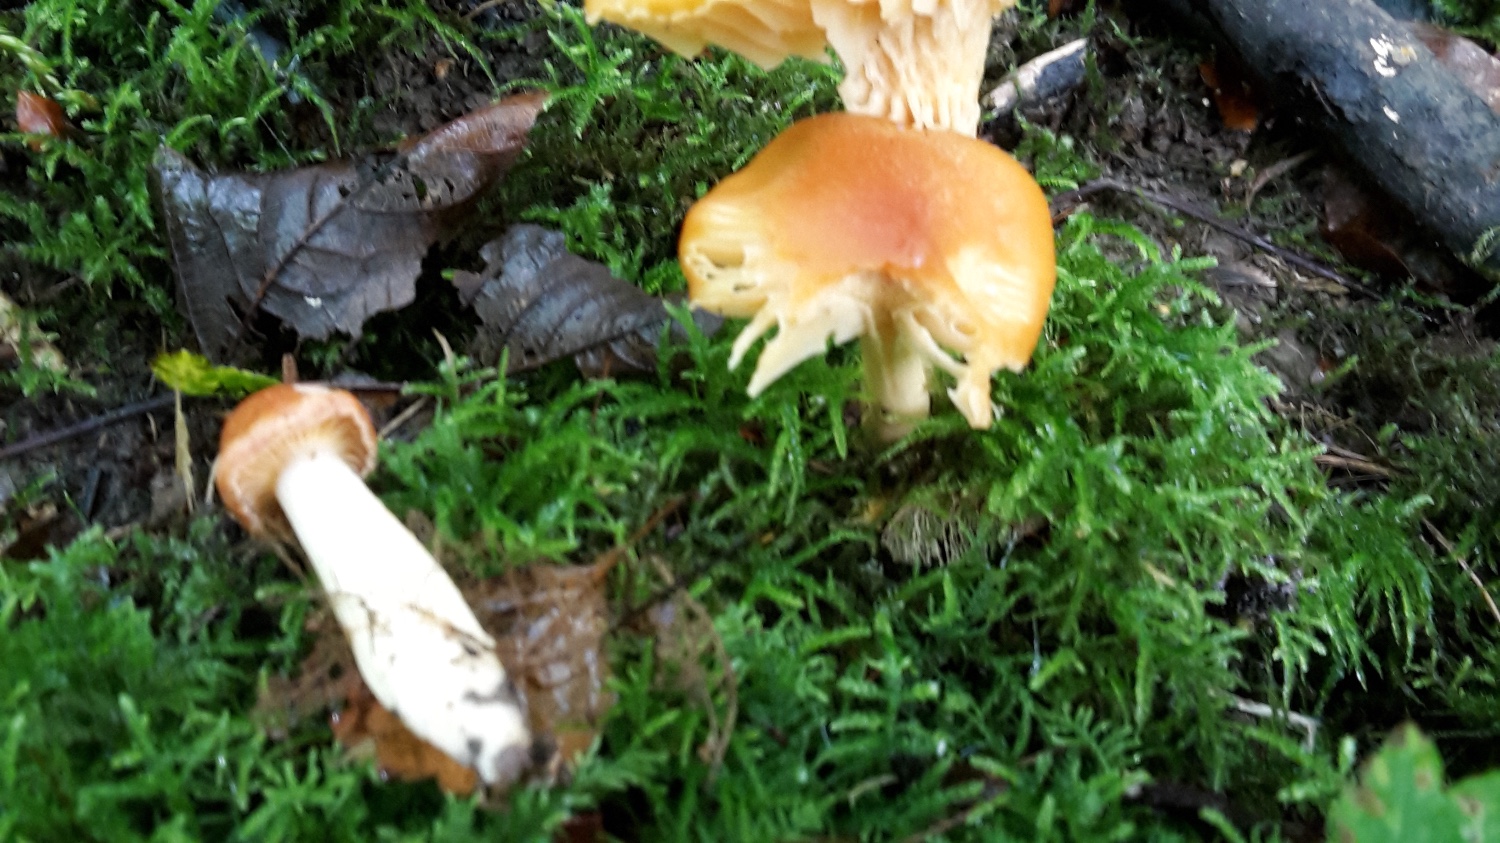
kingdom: Fungi
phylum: Basidiomycota
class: Agaricomycetes
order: Agaricales
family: Hygrophoraceae
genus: Cuphophyllus
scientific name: Cuphophyllus pratensis
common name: eng-vokshat
